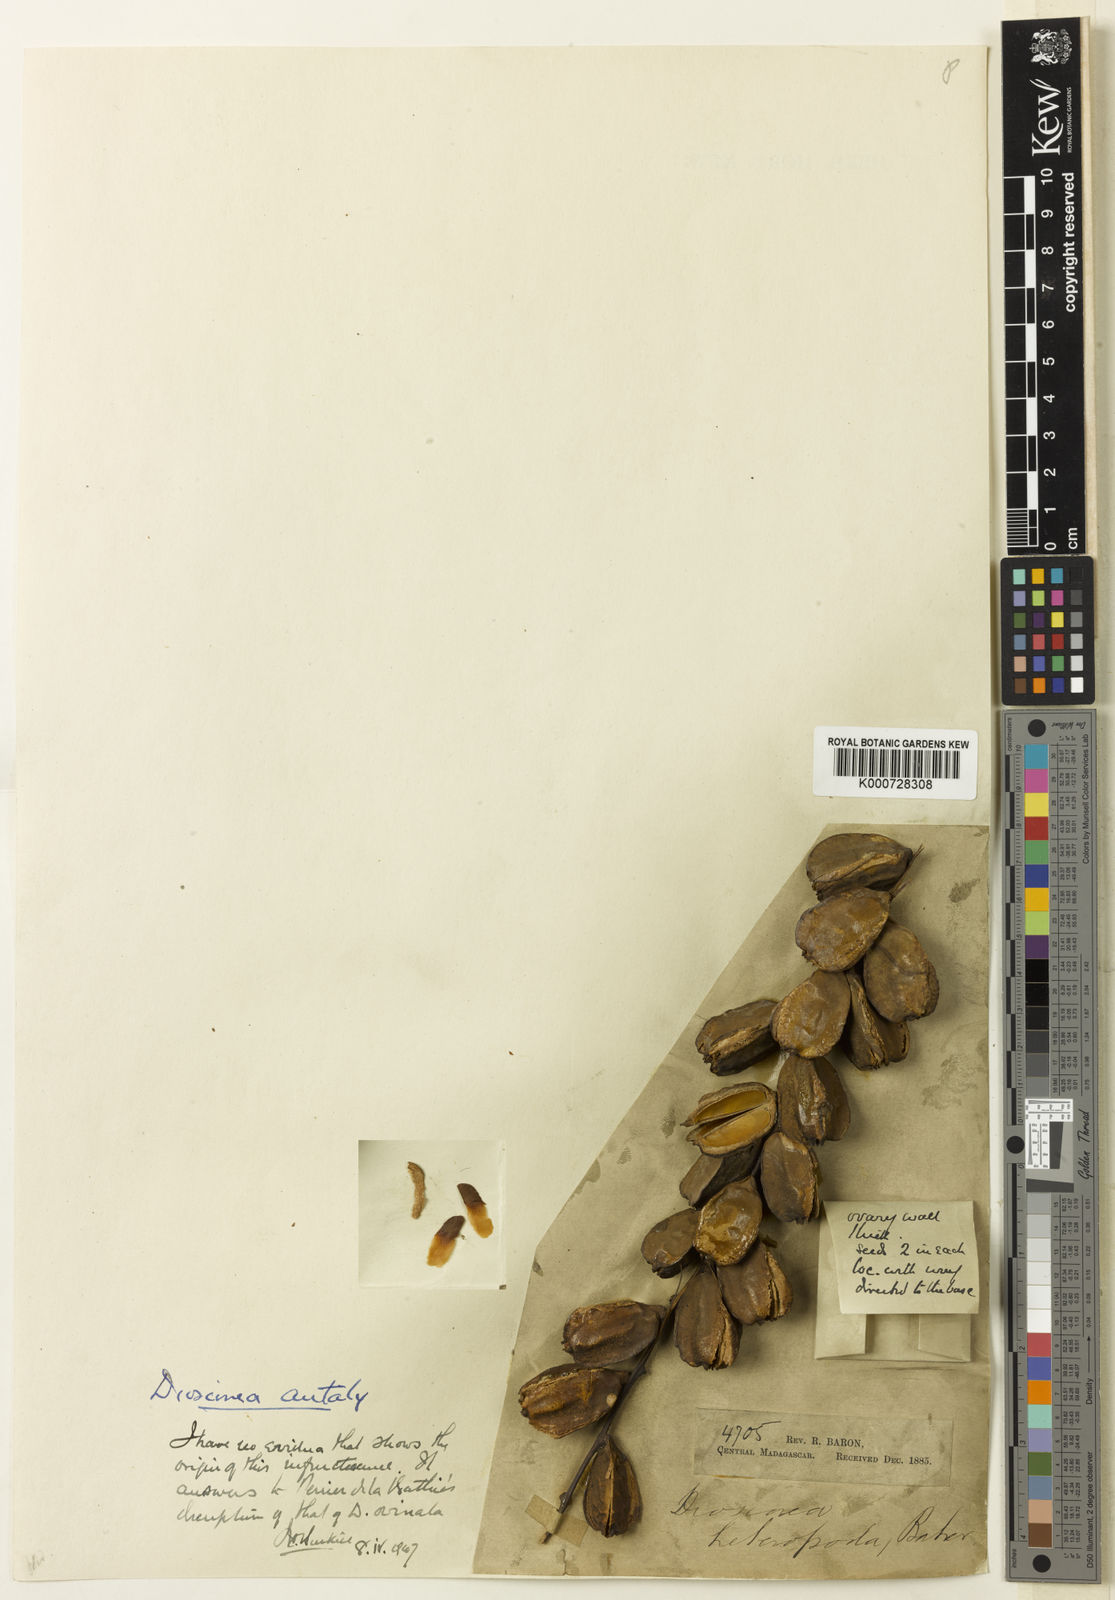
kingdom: Plantae
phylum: Tracheophyta
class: Liliopsida
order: Dioscoreales
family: Dioscoreaceae
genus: Dioscorea
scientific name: Dioscorea antaly
